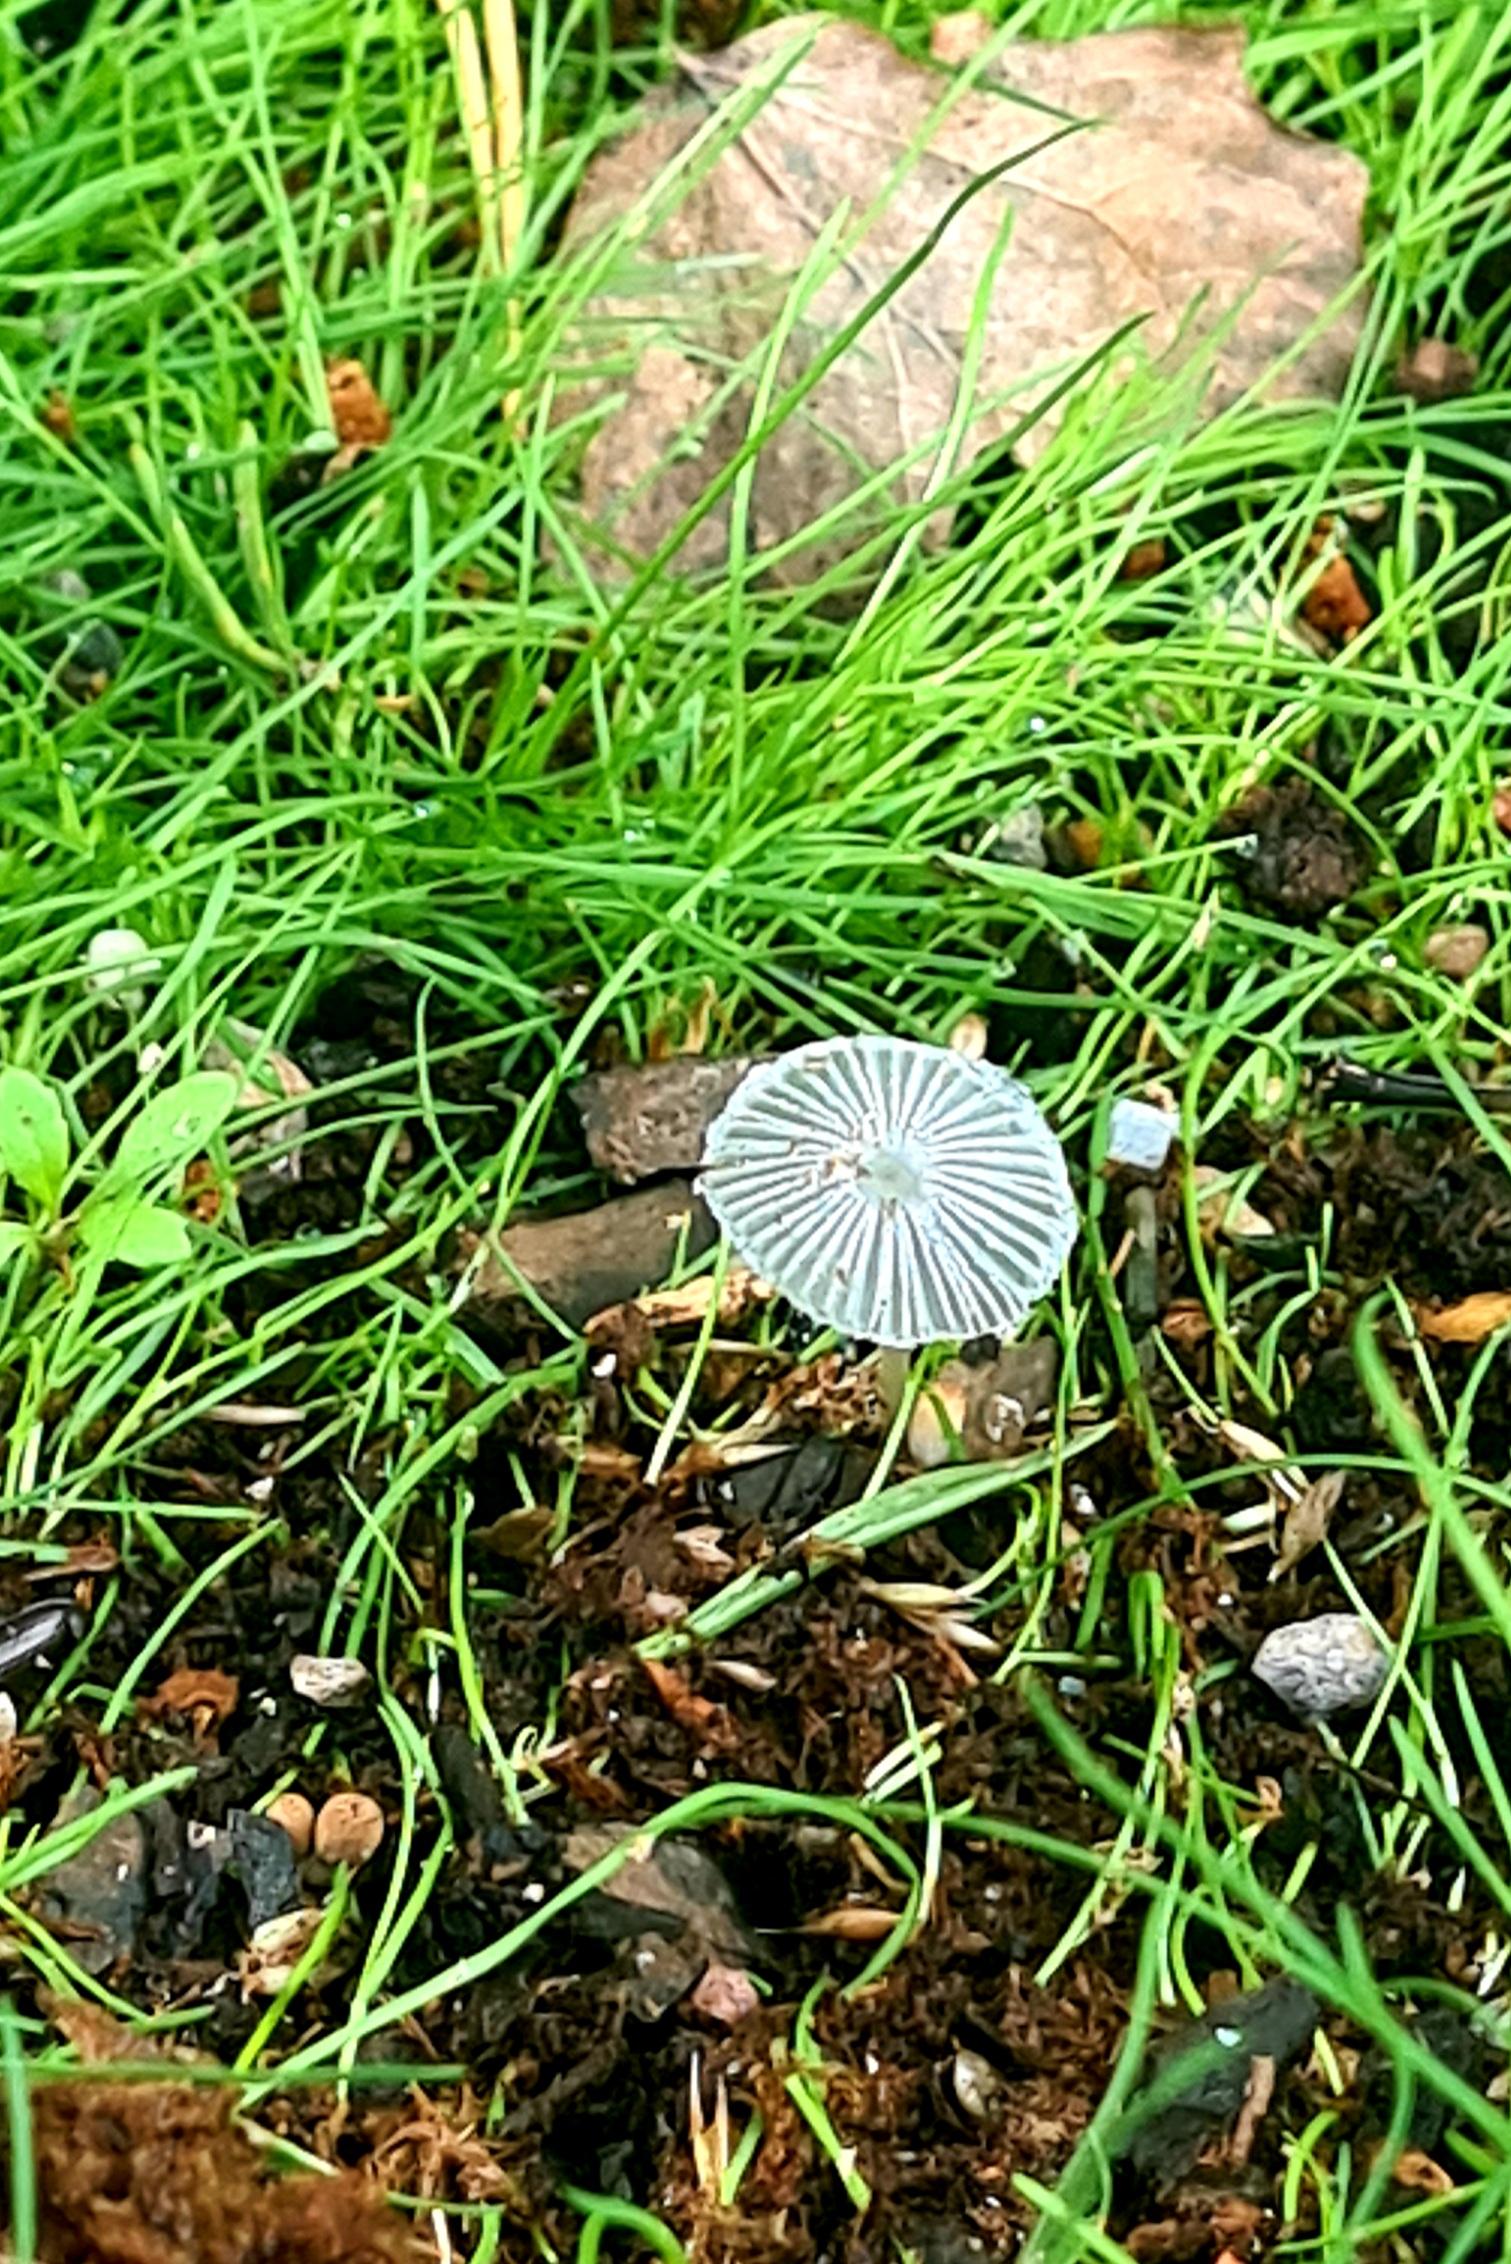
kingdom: Fungi
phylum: Basidiomycota
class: Agaricomycetes
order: Agaricales
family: Psathyrellaceae
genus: Coprinopsis
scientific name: Coprinopsis
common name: blækhat
